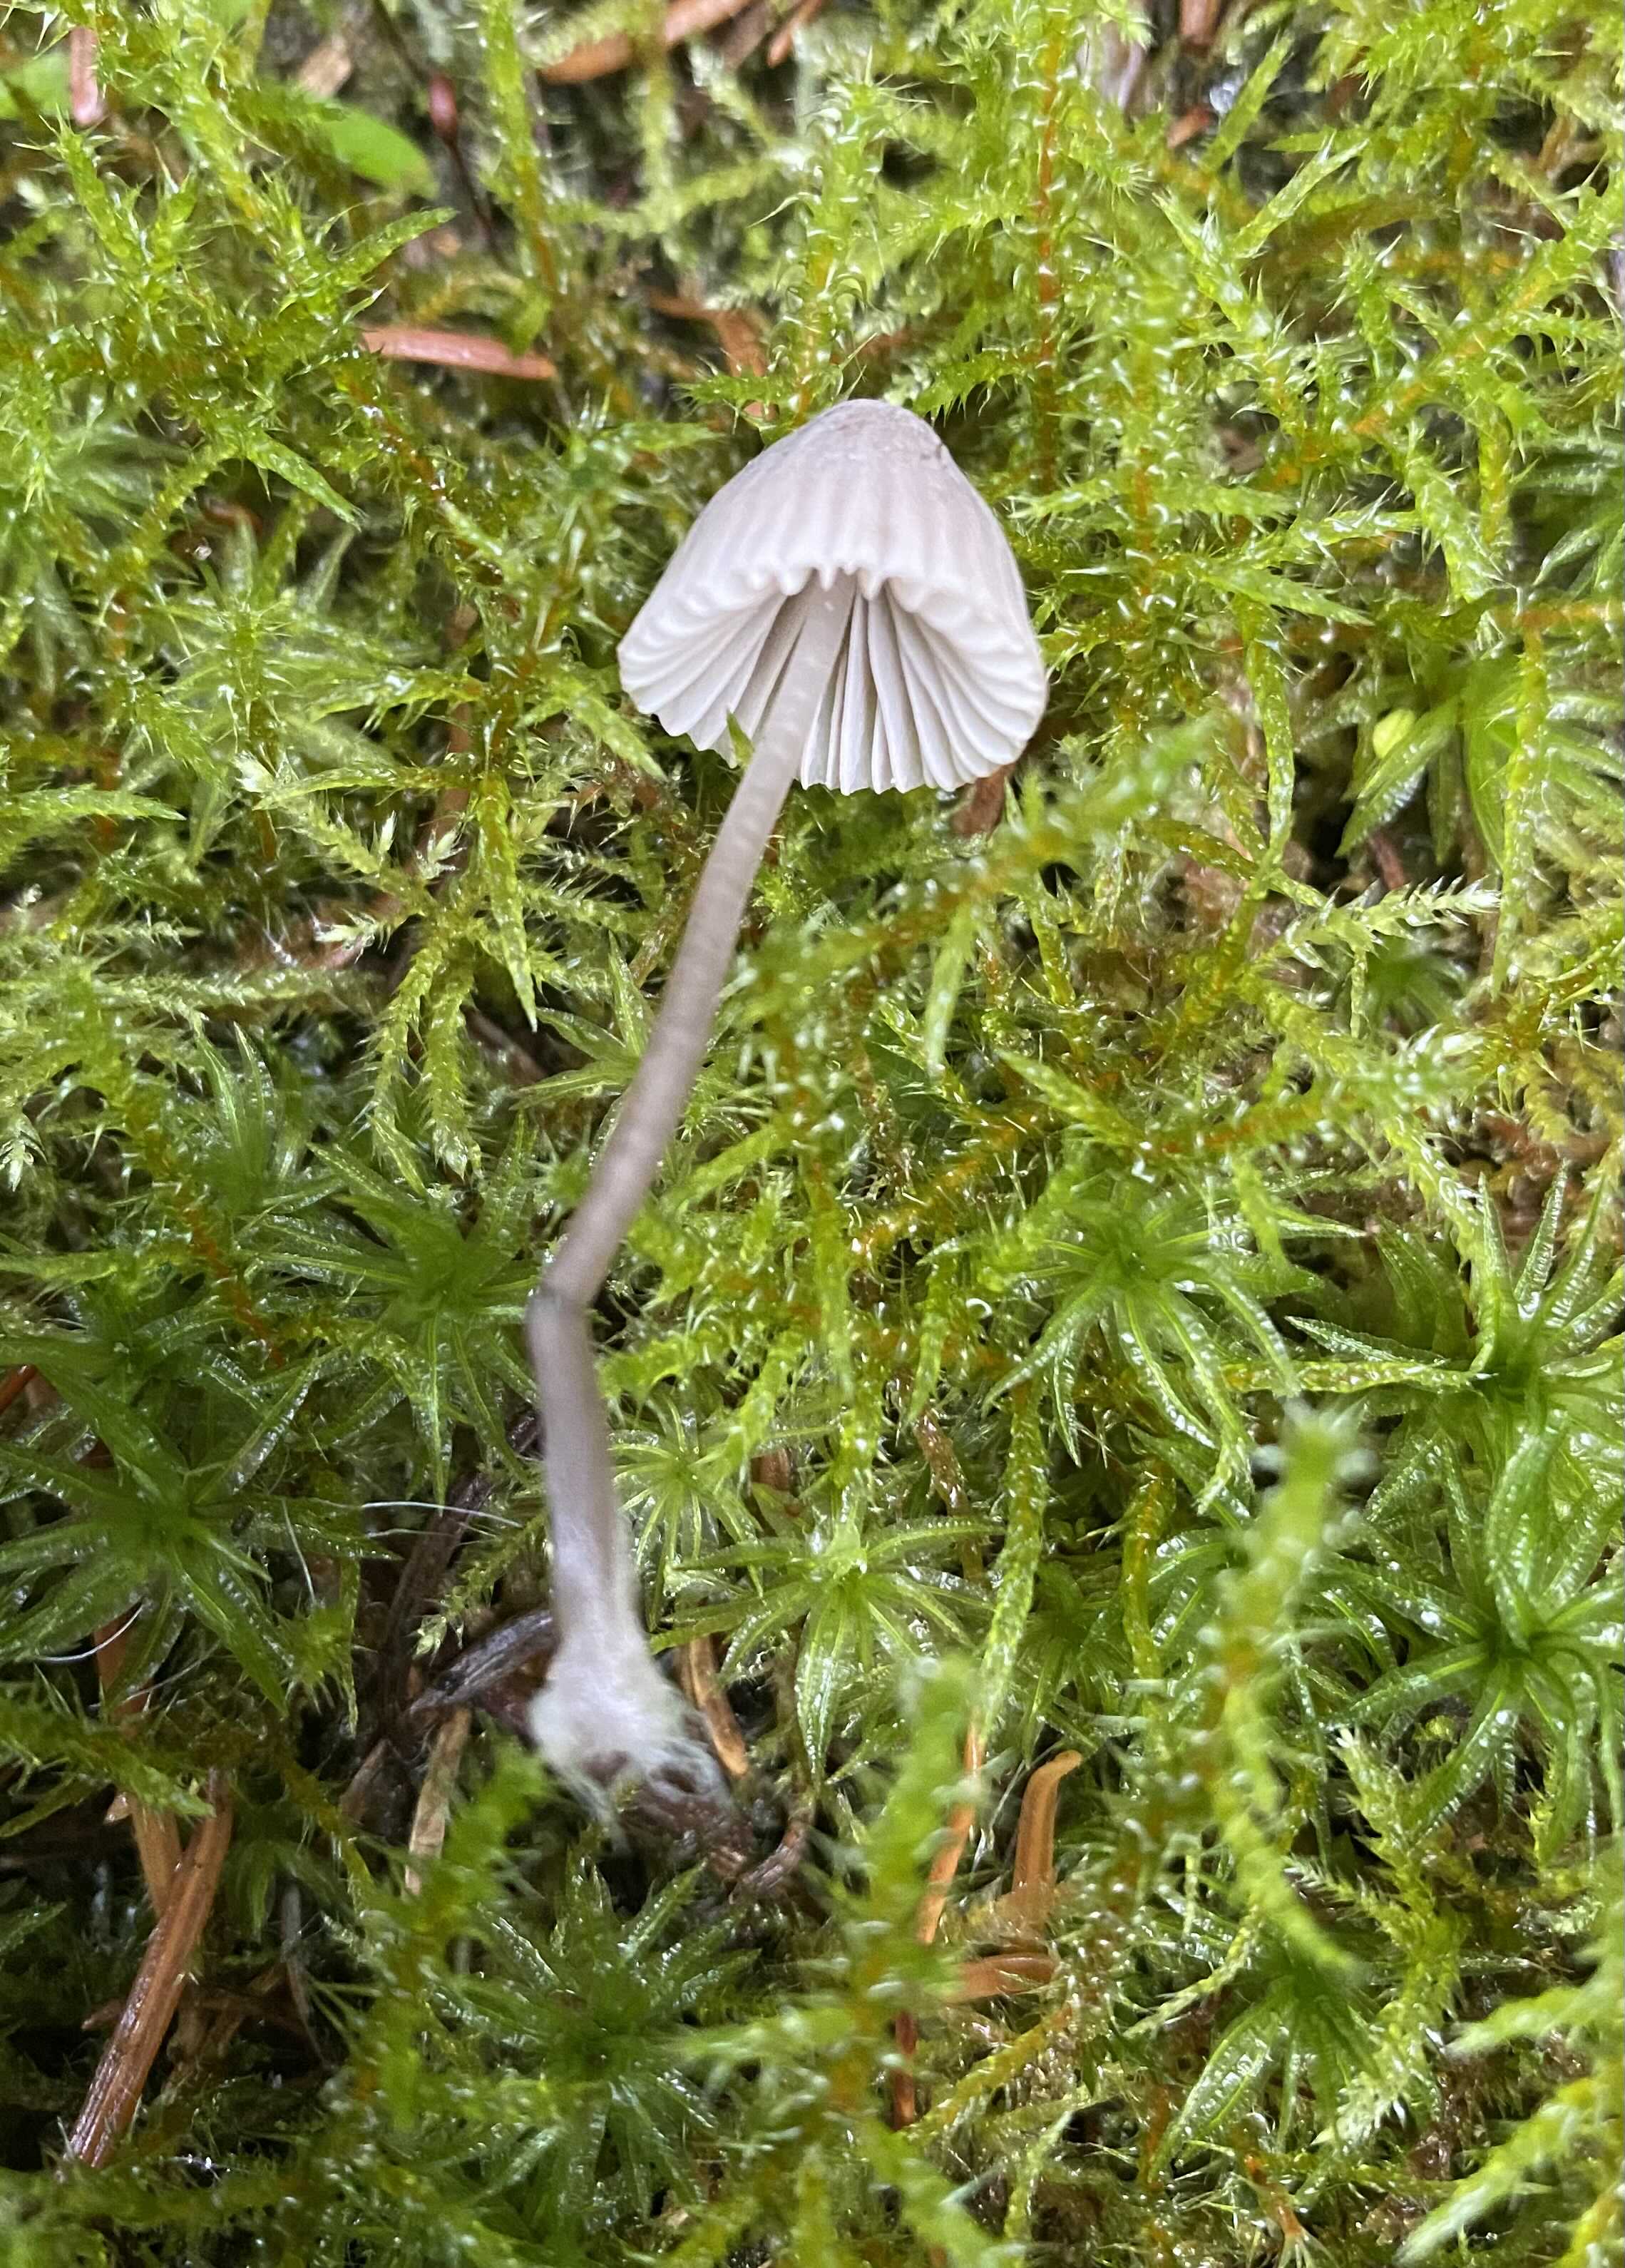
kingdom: Fungi
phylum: Basidiomycota
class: Agaricomycetes
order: Agaricales
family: Mycenaceae
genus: Mycena
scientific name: Mycena leptocephala
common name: klor-huesvamp
